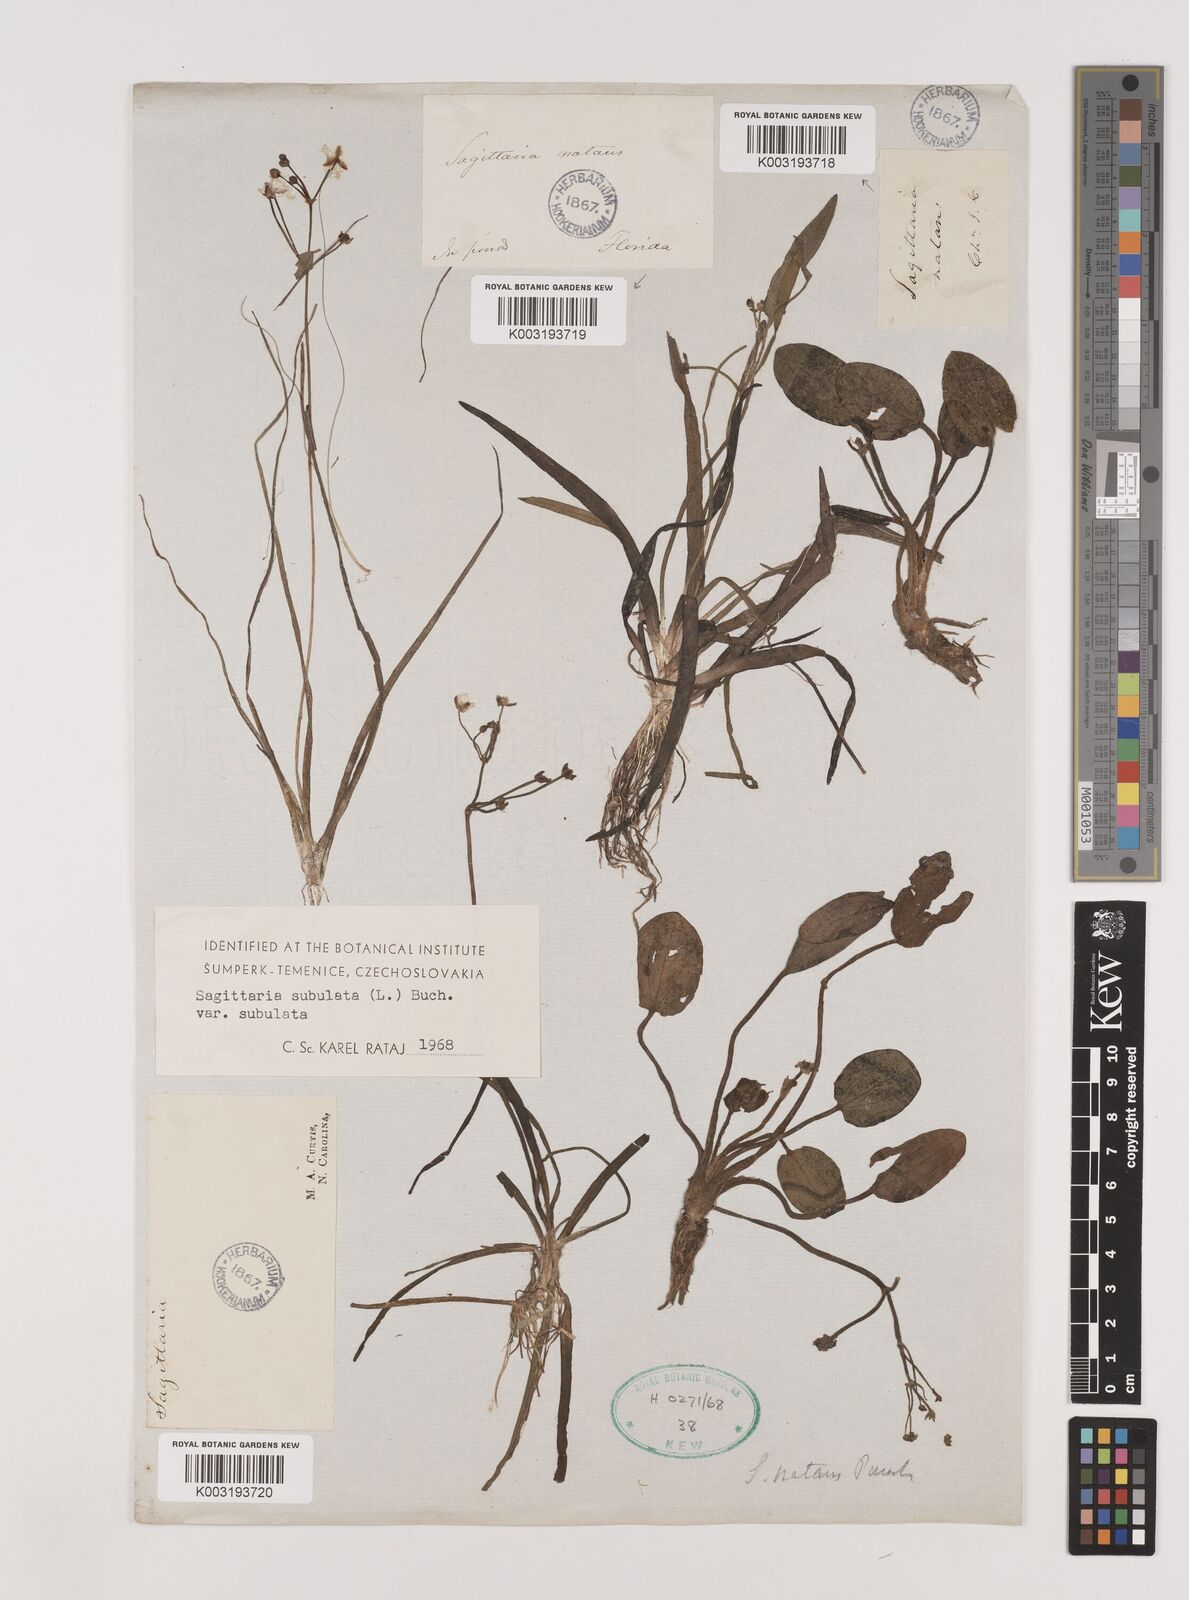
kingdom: Plantae
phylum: Tracheophyta
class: Liliopsida
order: Alismatales
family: Alismataceae
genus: Sagittaria
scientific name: Sagittaria subulata
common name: Narrow-leaved arrowhead
